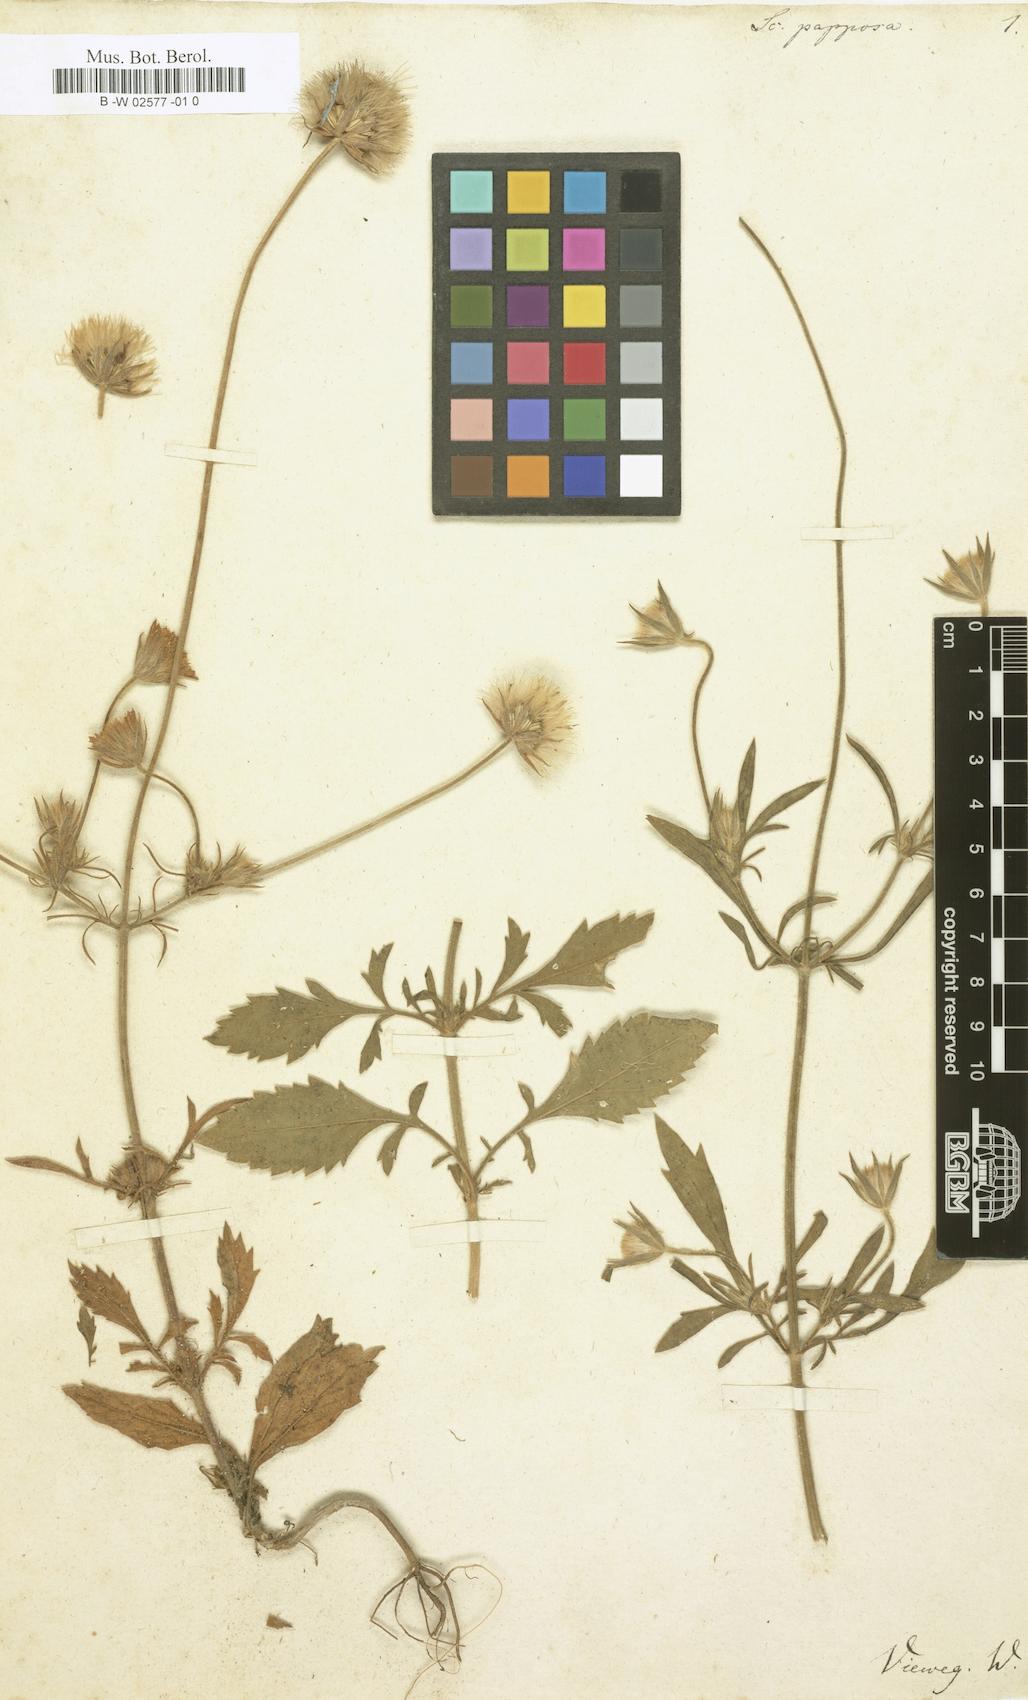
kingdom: Plantae
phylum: Tracheophyta
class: Magnoliopsida
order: Dipsacales
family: Caprifoliaceae
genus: Pterocephalus
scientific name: Pterocephalus plumosus
